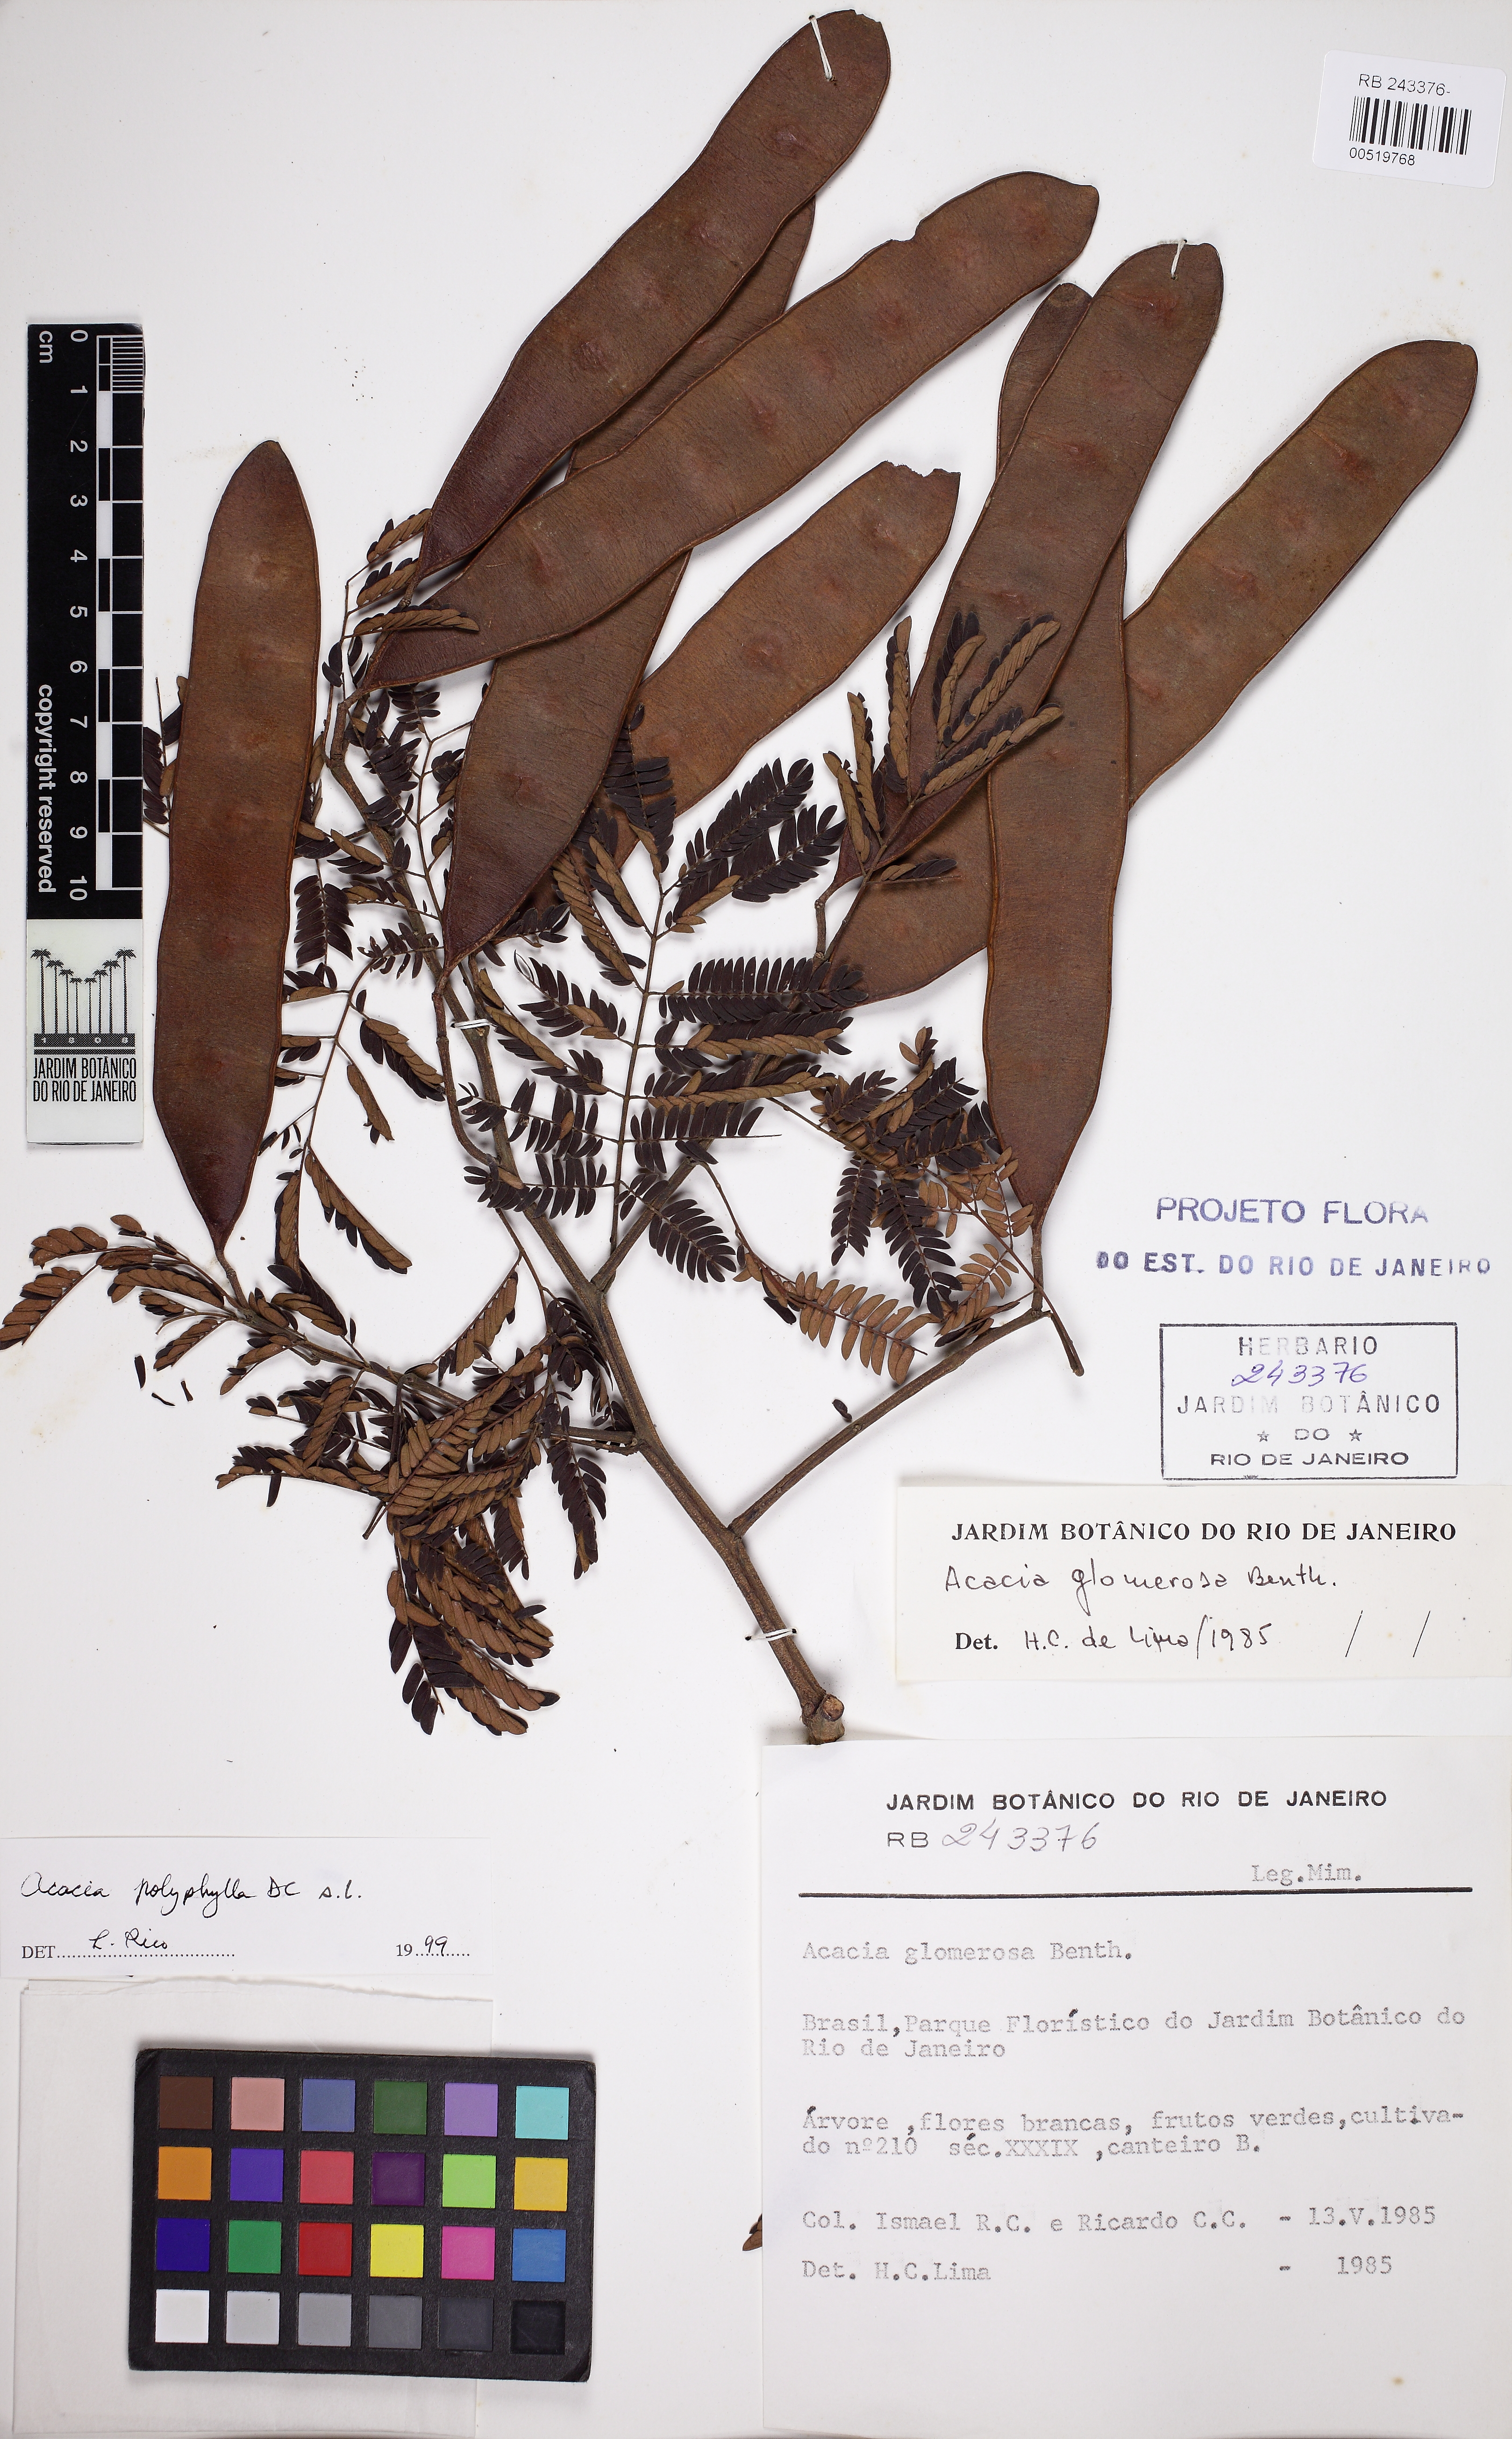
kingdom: Plantae
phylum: Tracheophyta
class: Magnoliopsida
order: Fabales
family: Fabaceae
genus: Senegalia
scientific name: Senegalia polyphylla
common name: White-tamarind
